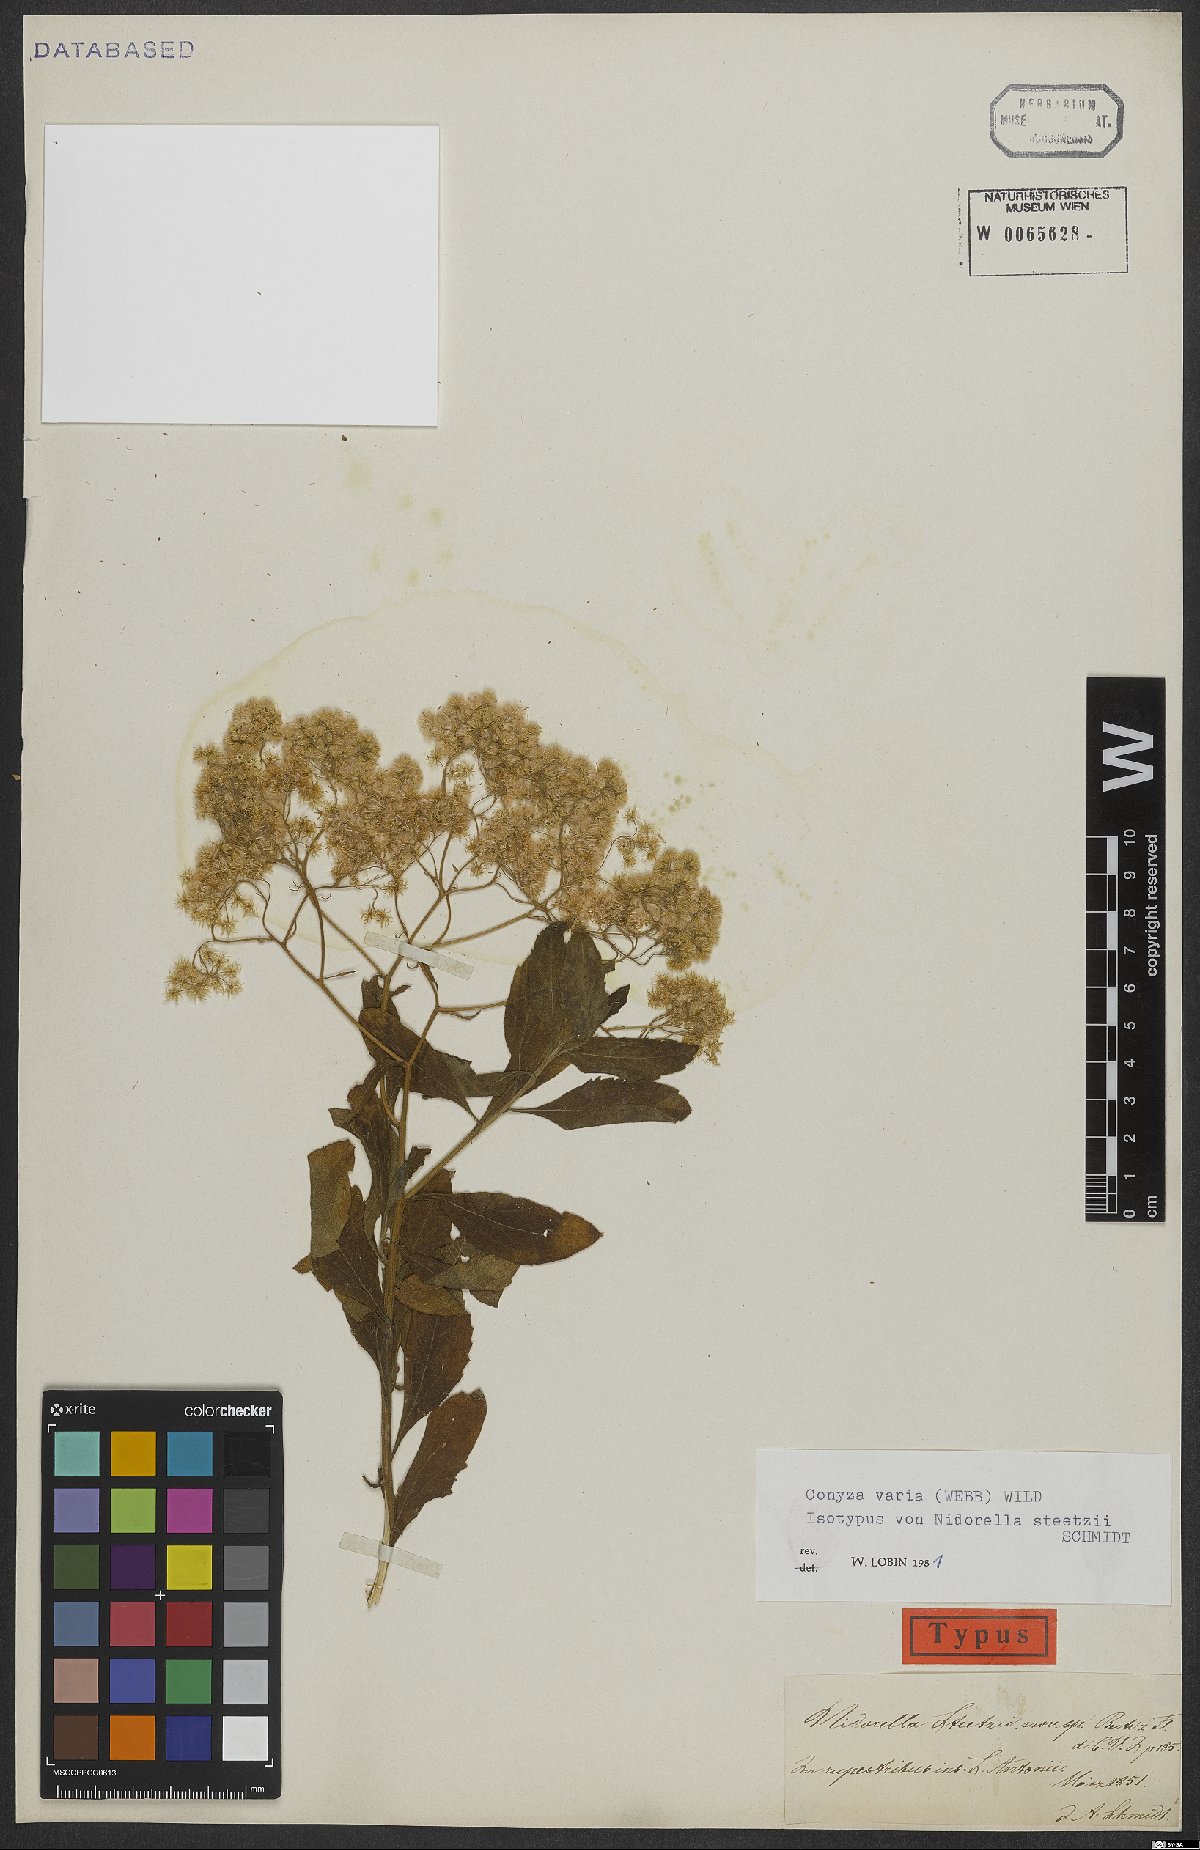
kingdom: Plantae
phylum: Tracheophyta
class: Magnoliopsida
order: Asterales
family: Asteraceae
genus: Nidorella
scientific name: Nidorella varia
